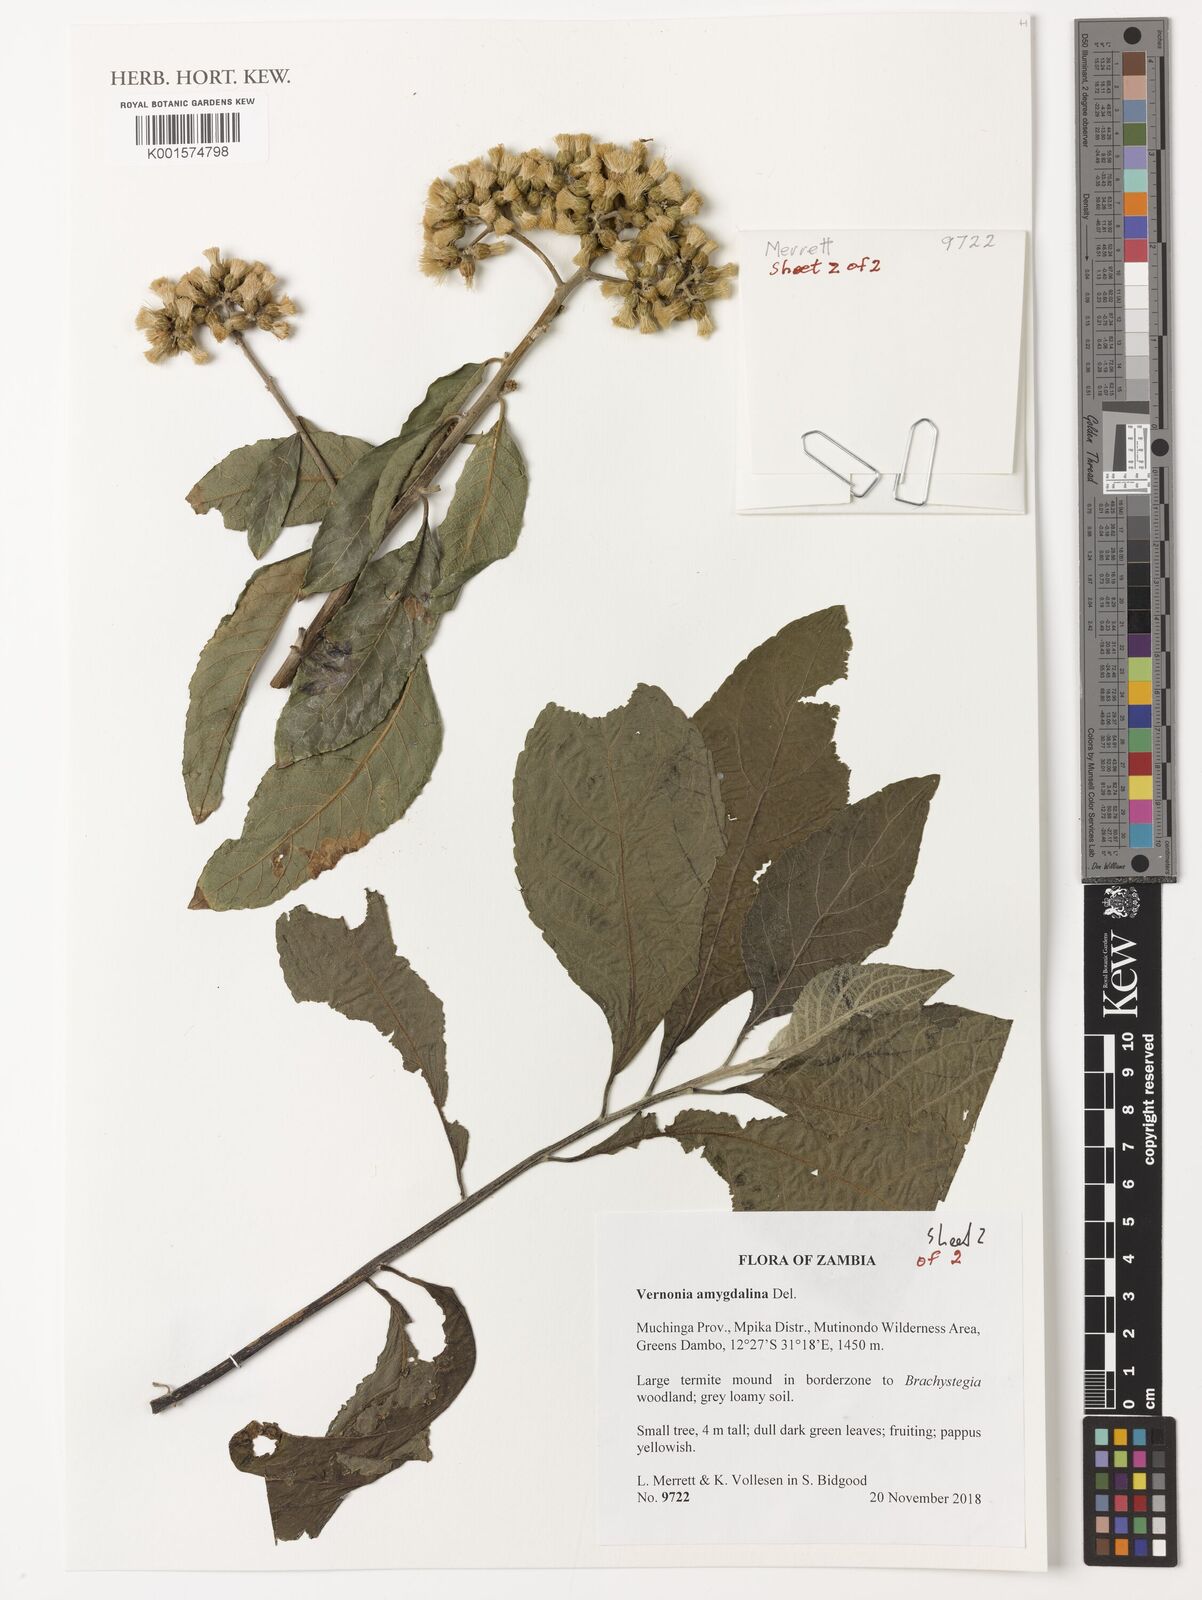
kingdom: Plantae
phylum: Tracheophyta
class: Magnoliopsida
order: Asterales
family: Asteraceae
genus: Gymnanthemum
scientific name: Gymnanthemum amygdalinum
